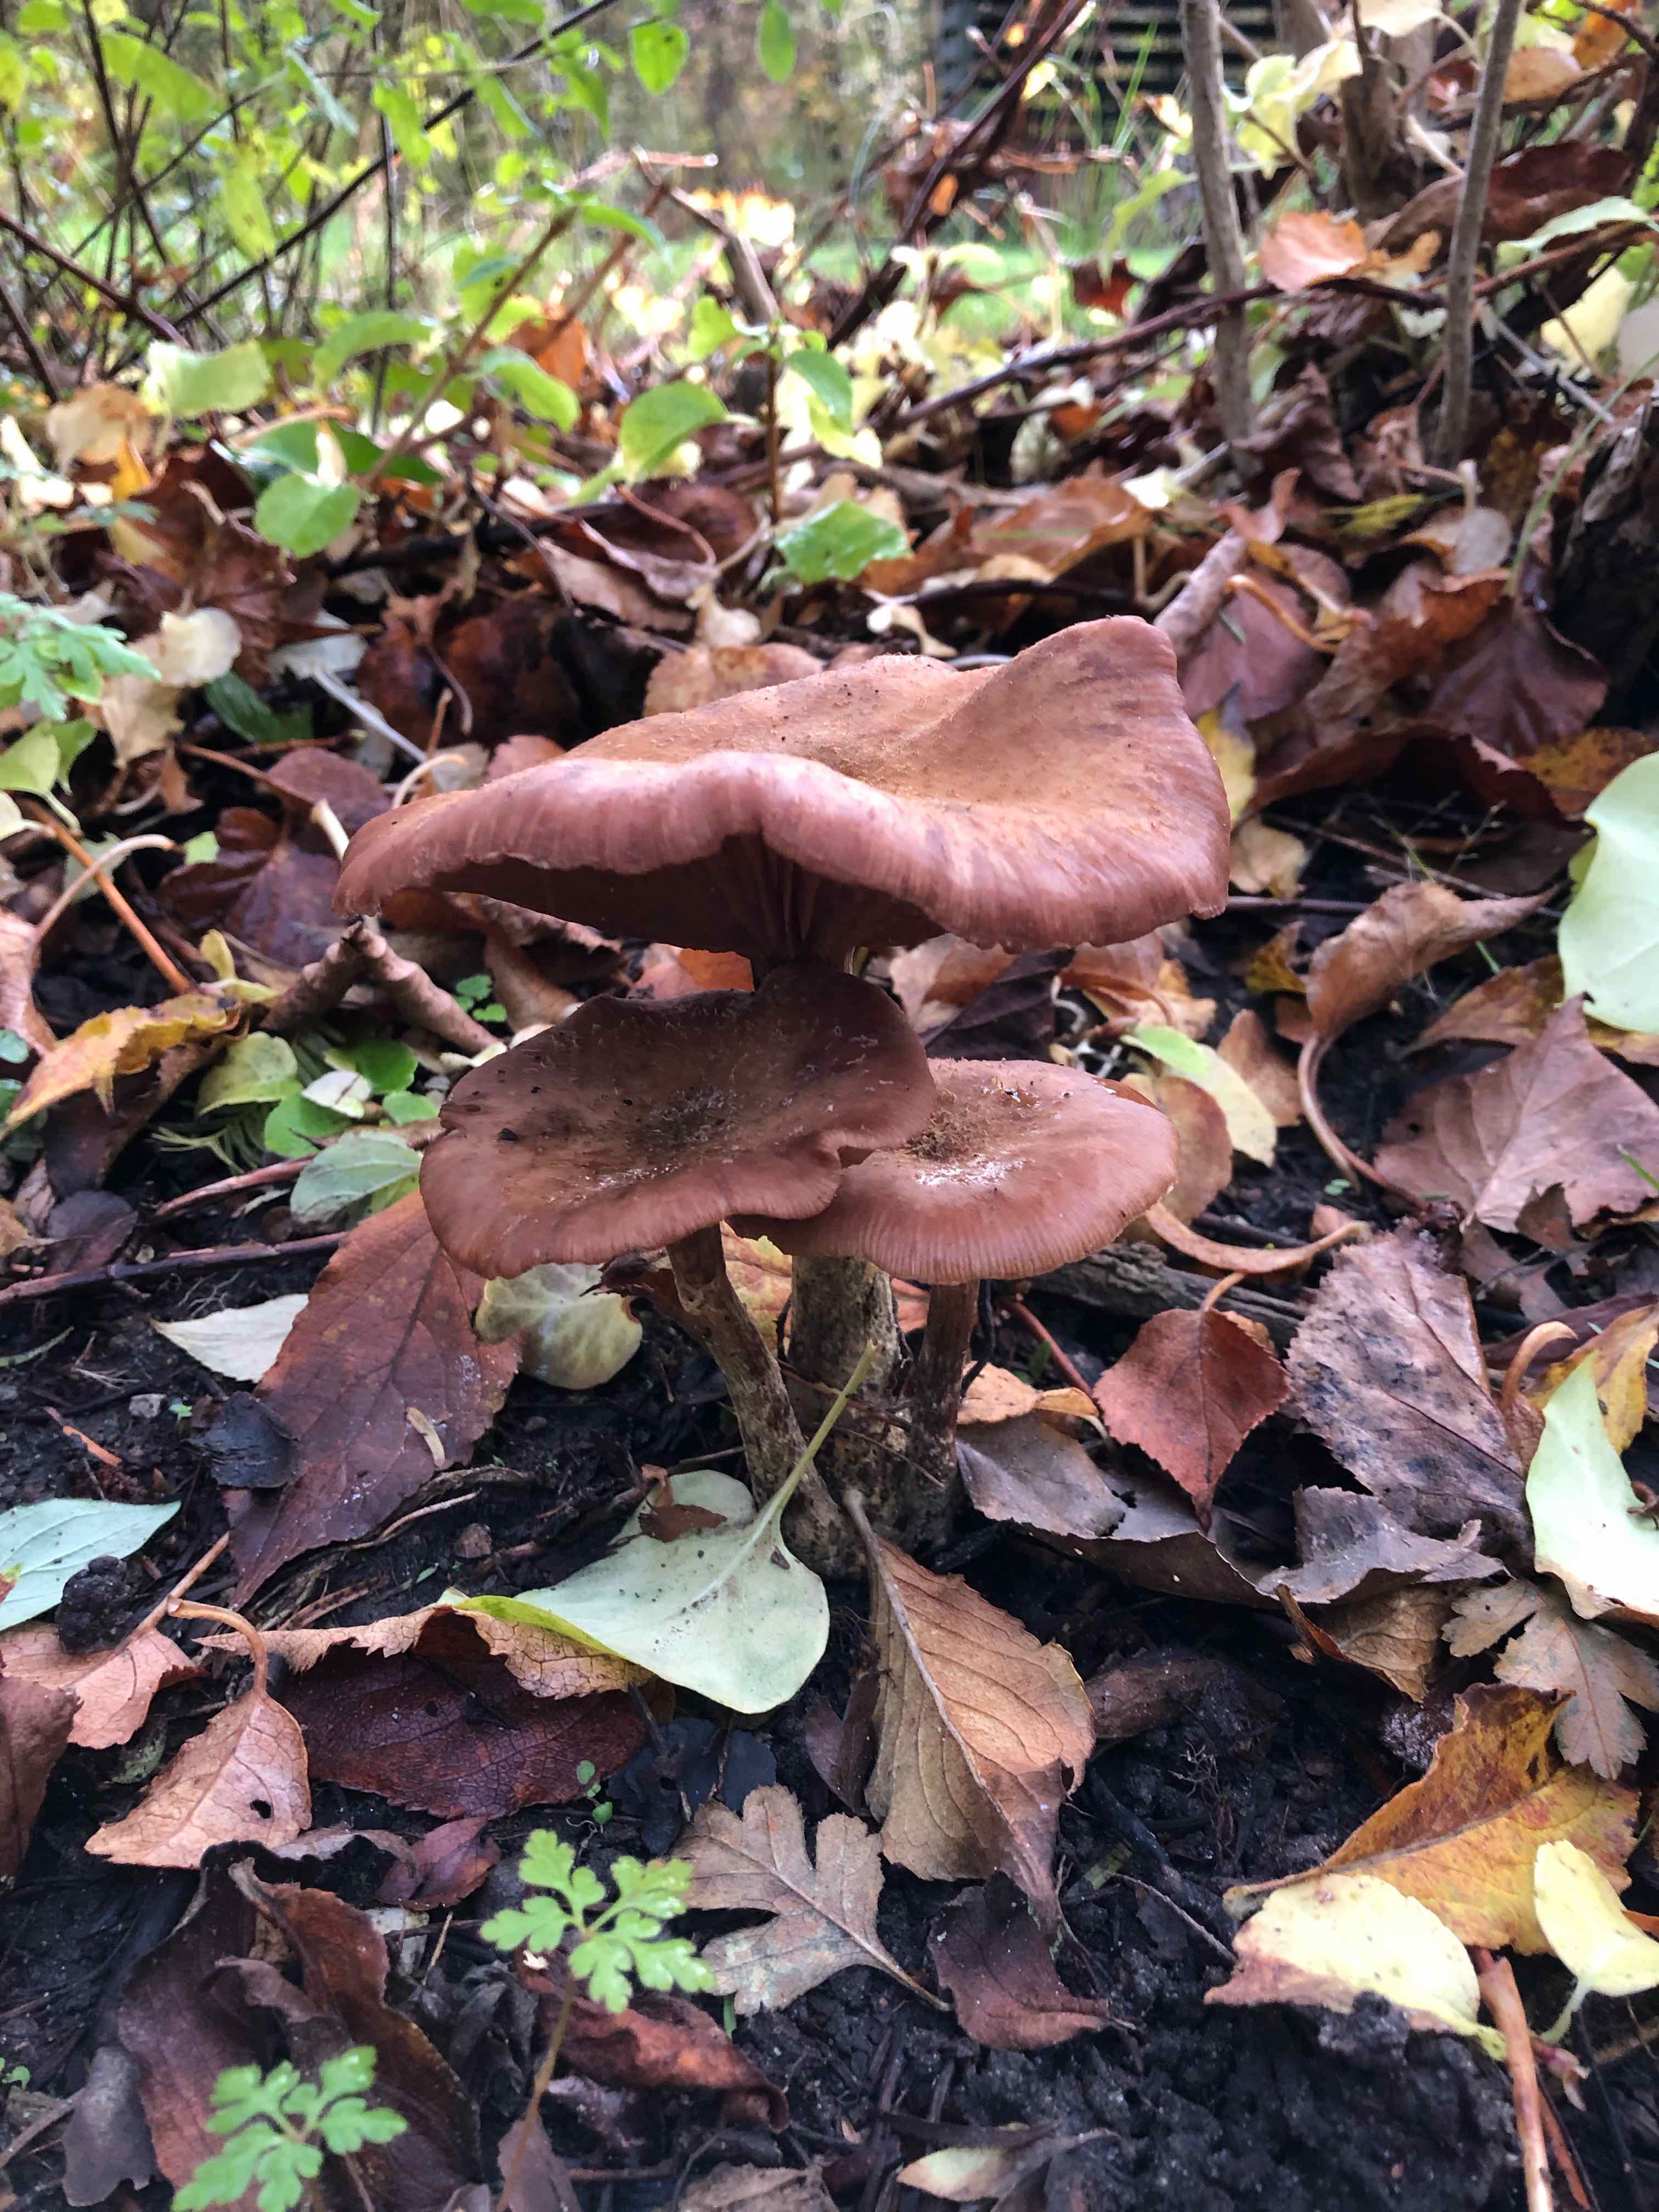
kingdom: Fungi
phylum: Basidiomycota
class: Agaricomycetes
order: Agaricales
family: Physalacriaceae
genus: Armillaria
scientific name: Armillaria
